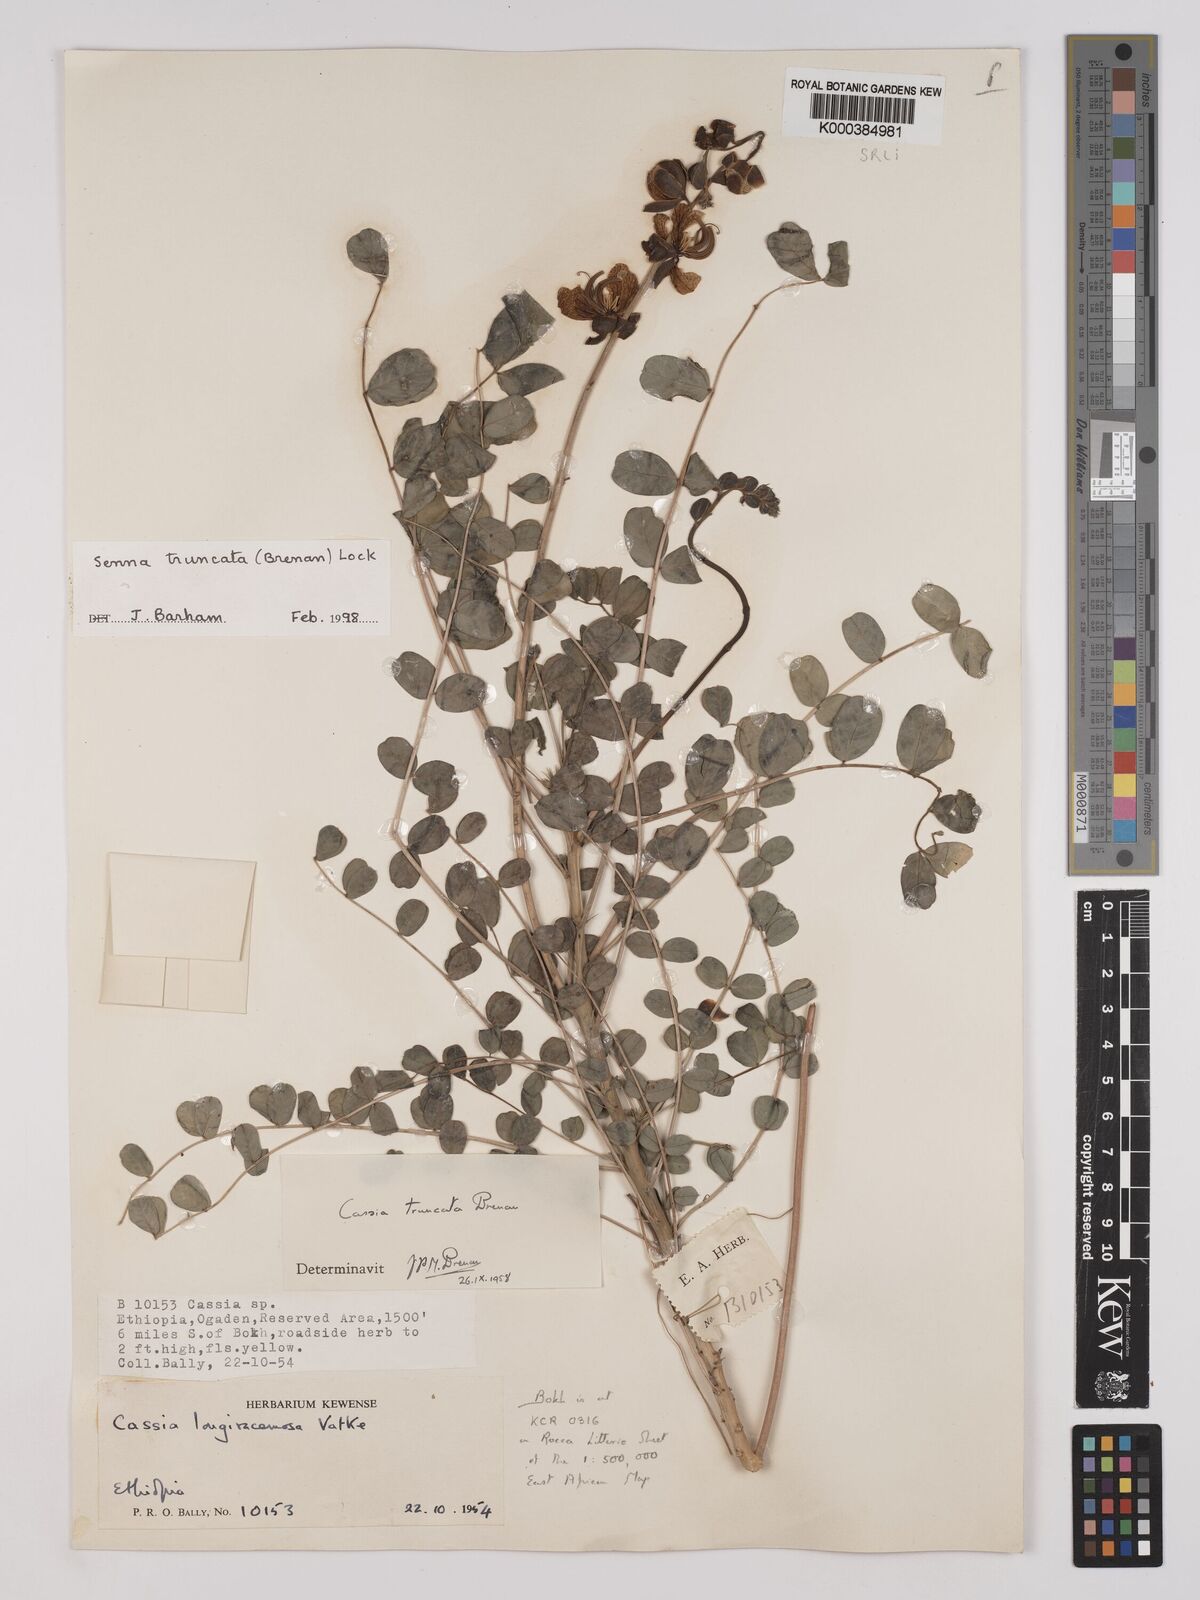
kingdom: Plantae
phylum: Tracheophyta
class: Magnoliopsida
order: Fabales
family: Fabaceae
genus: Senna
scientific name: Senna truncata
